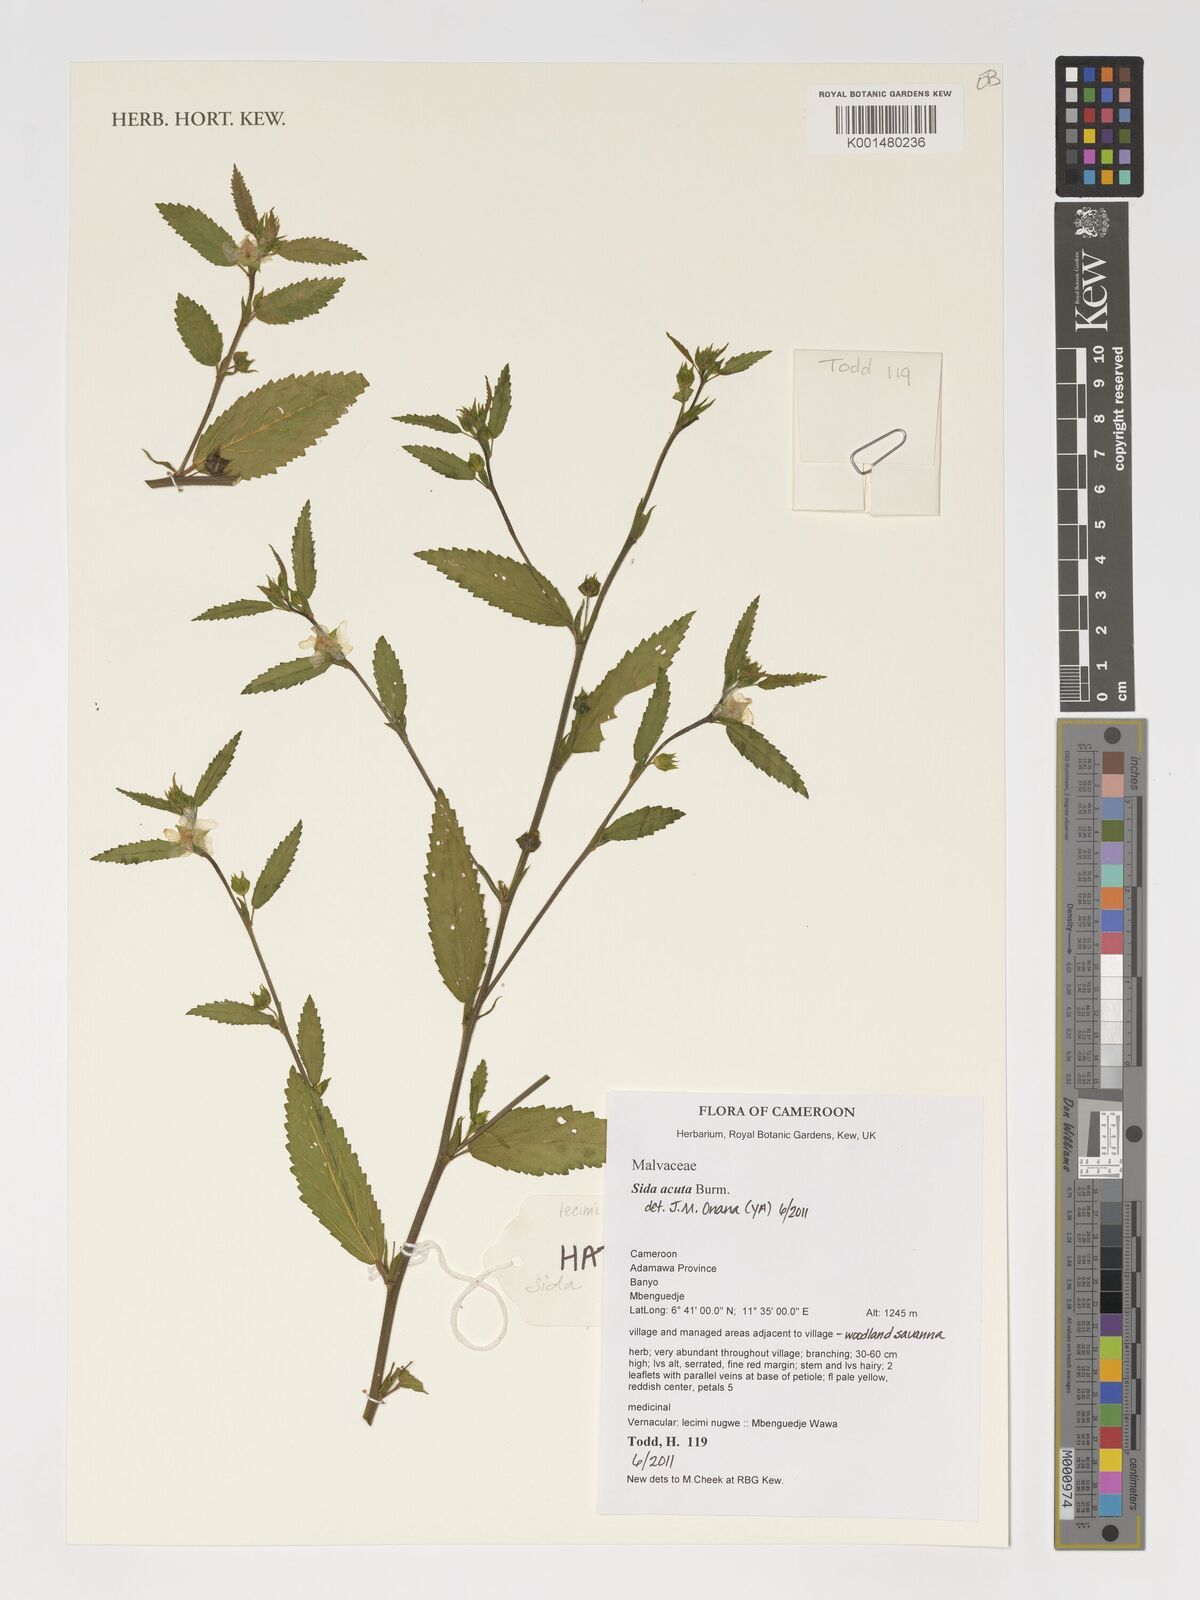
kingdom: Plantae
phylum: Tracheophyta
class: Magnoliopsida
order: Malvales
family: Malvaceae
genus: Sida
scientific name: Sida acuta
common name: Common wireweed
